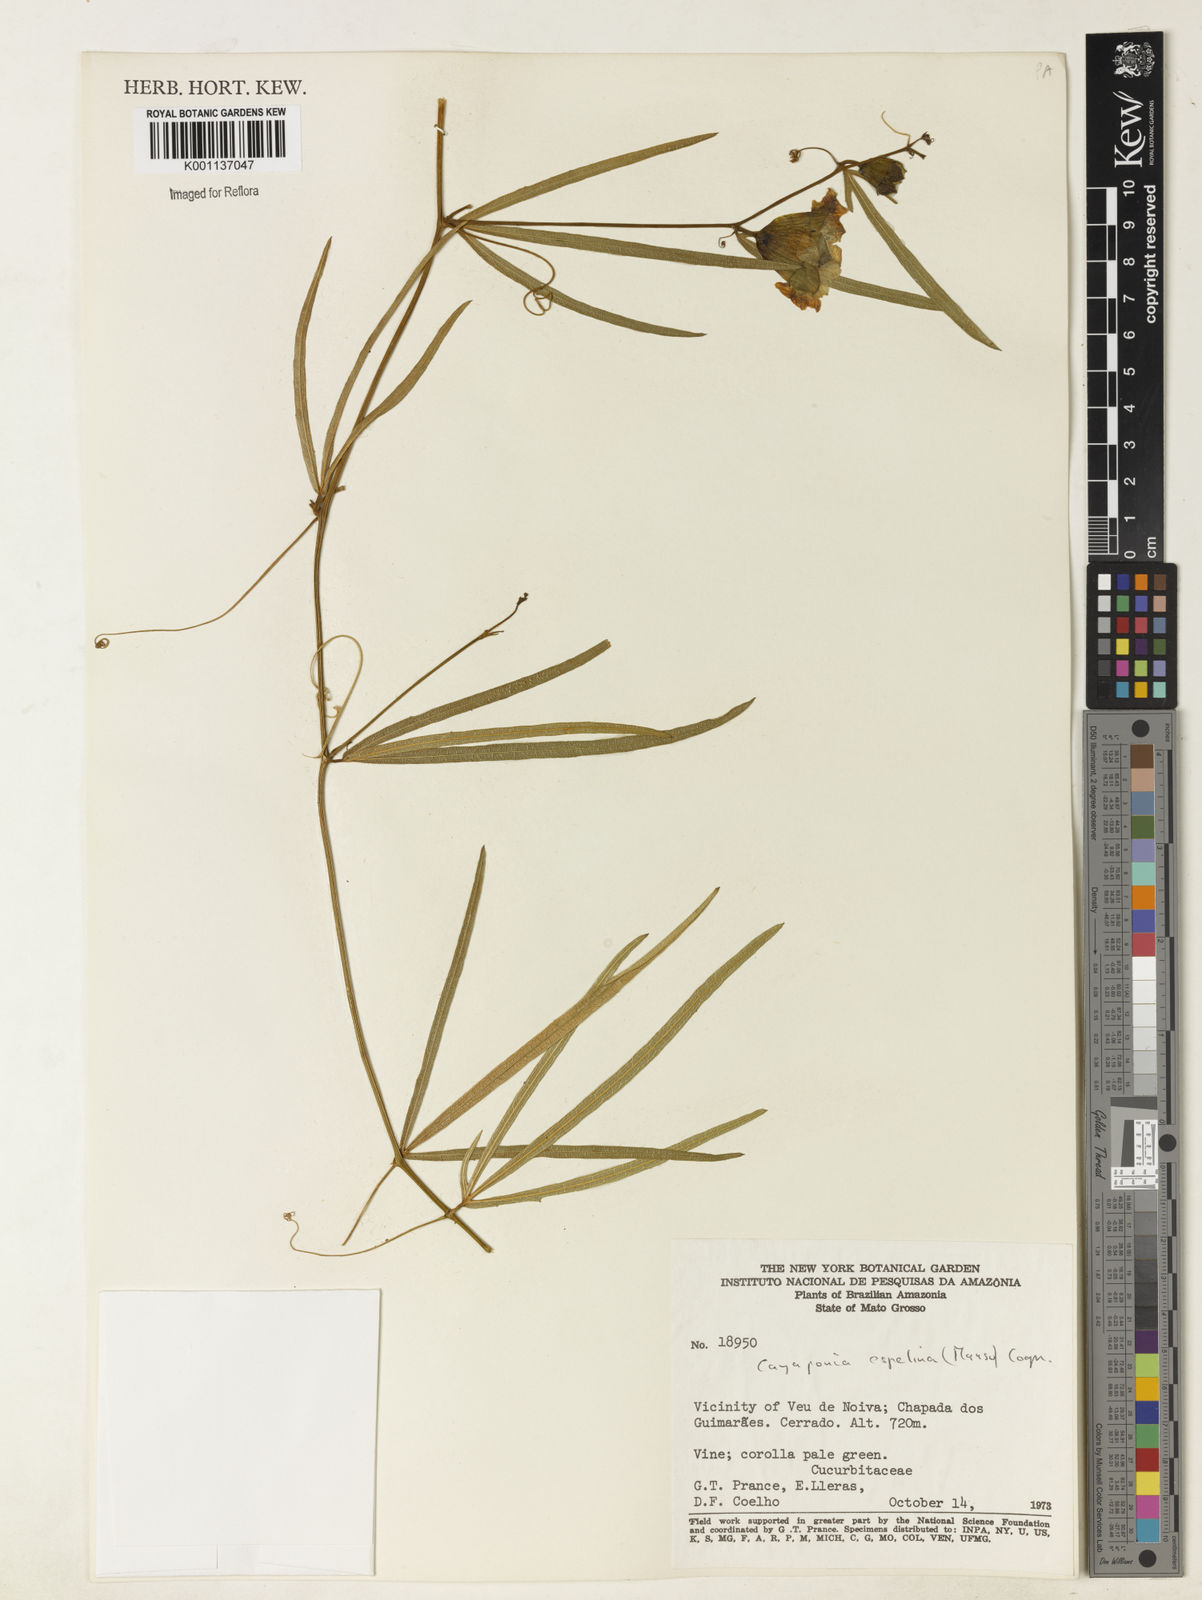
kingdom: Plantae
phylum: Tracheophyta
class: Magnoliopsida
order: Cucurbitales
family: Cucurbitaceae
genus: Cayaponia
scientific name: Cayaponia espelina
